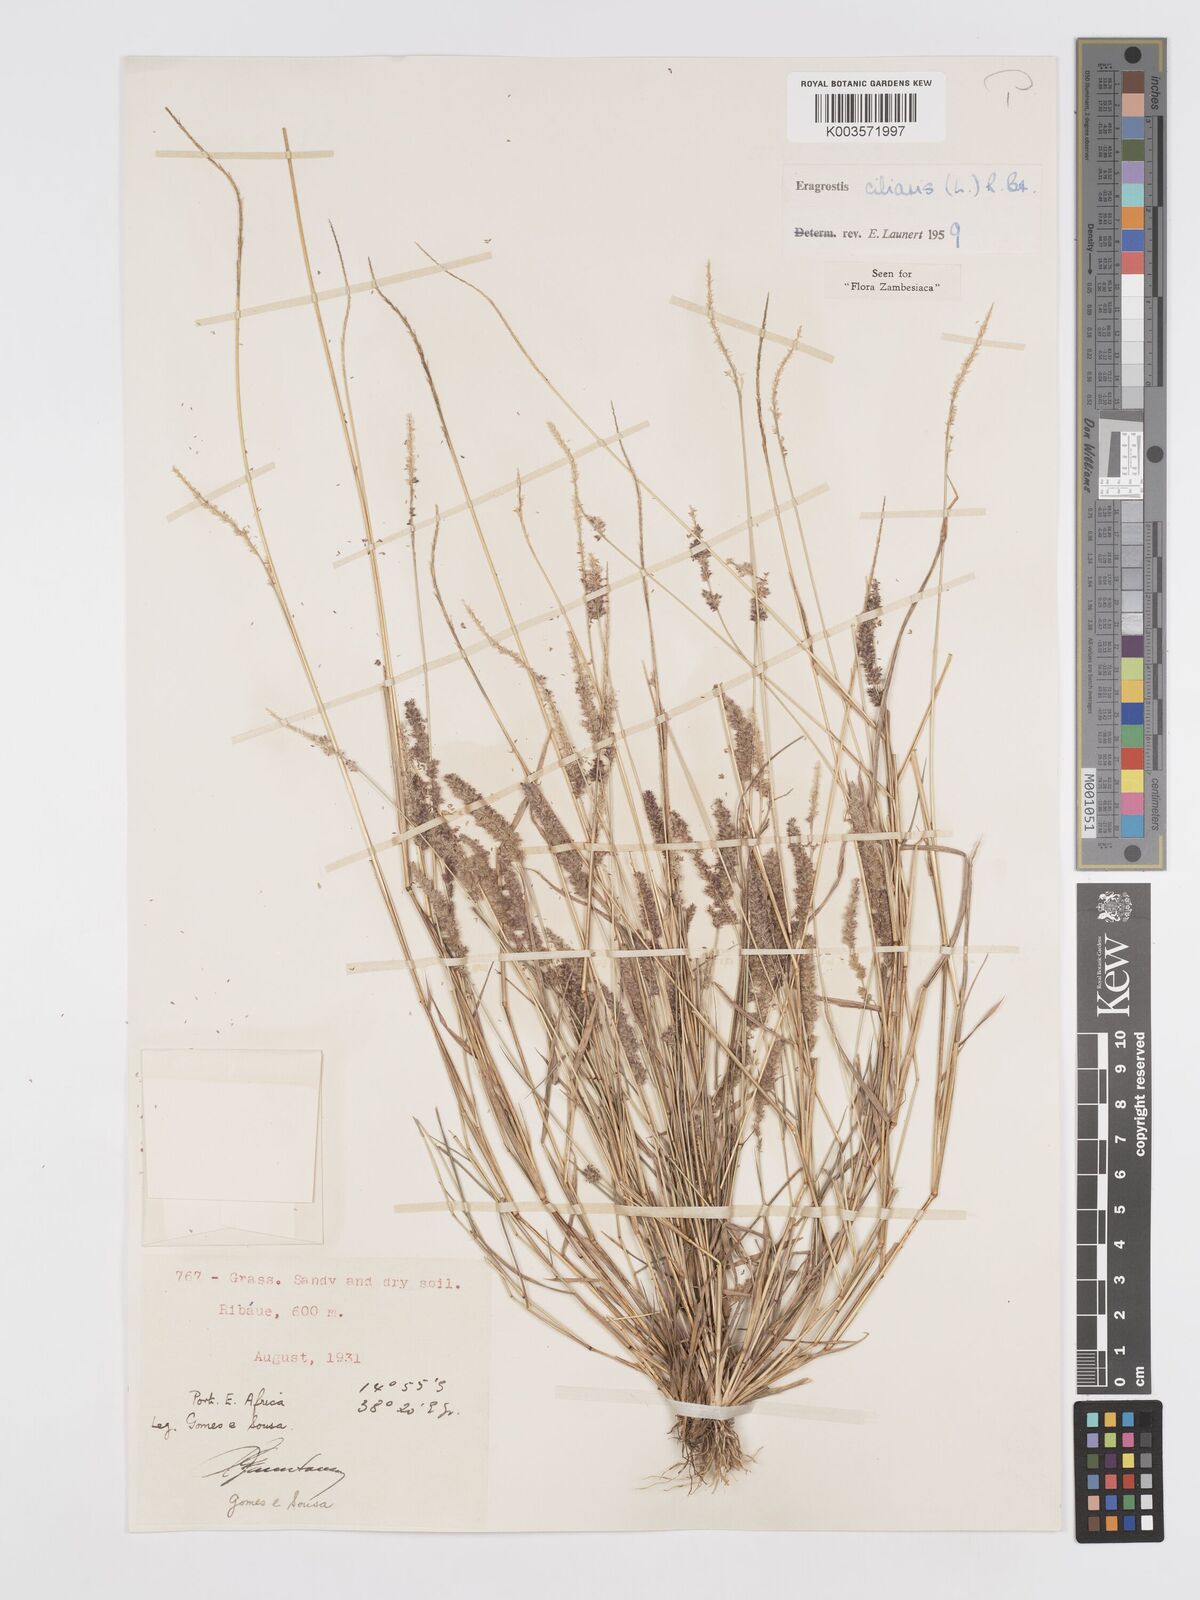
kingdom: Plantae
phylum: Tracheophyta
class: Liliopsida
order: Poales
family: Poaceae
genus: Eragrostis
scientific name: Eragrostis ciliaris
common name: Gophertail lovegrass
